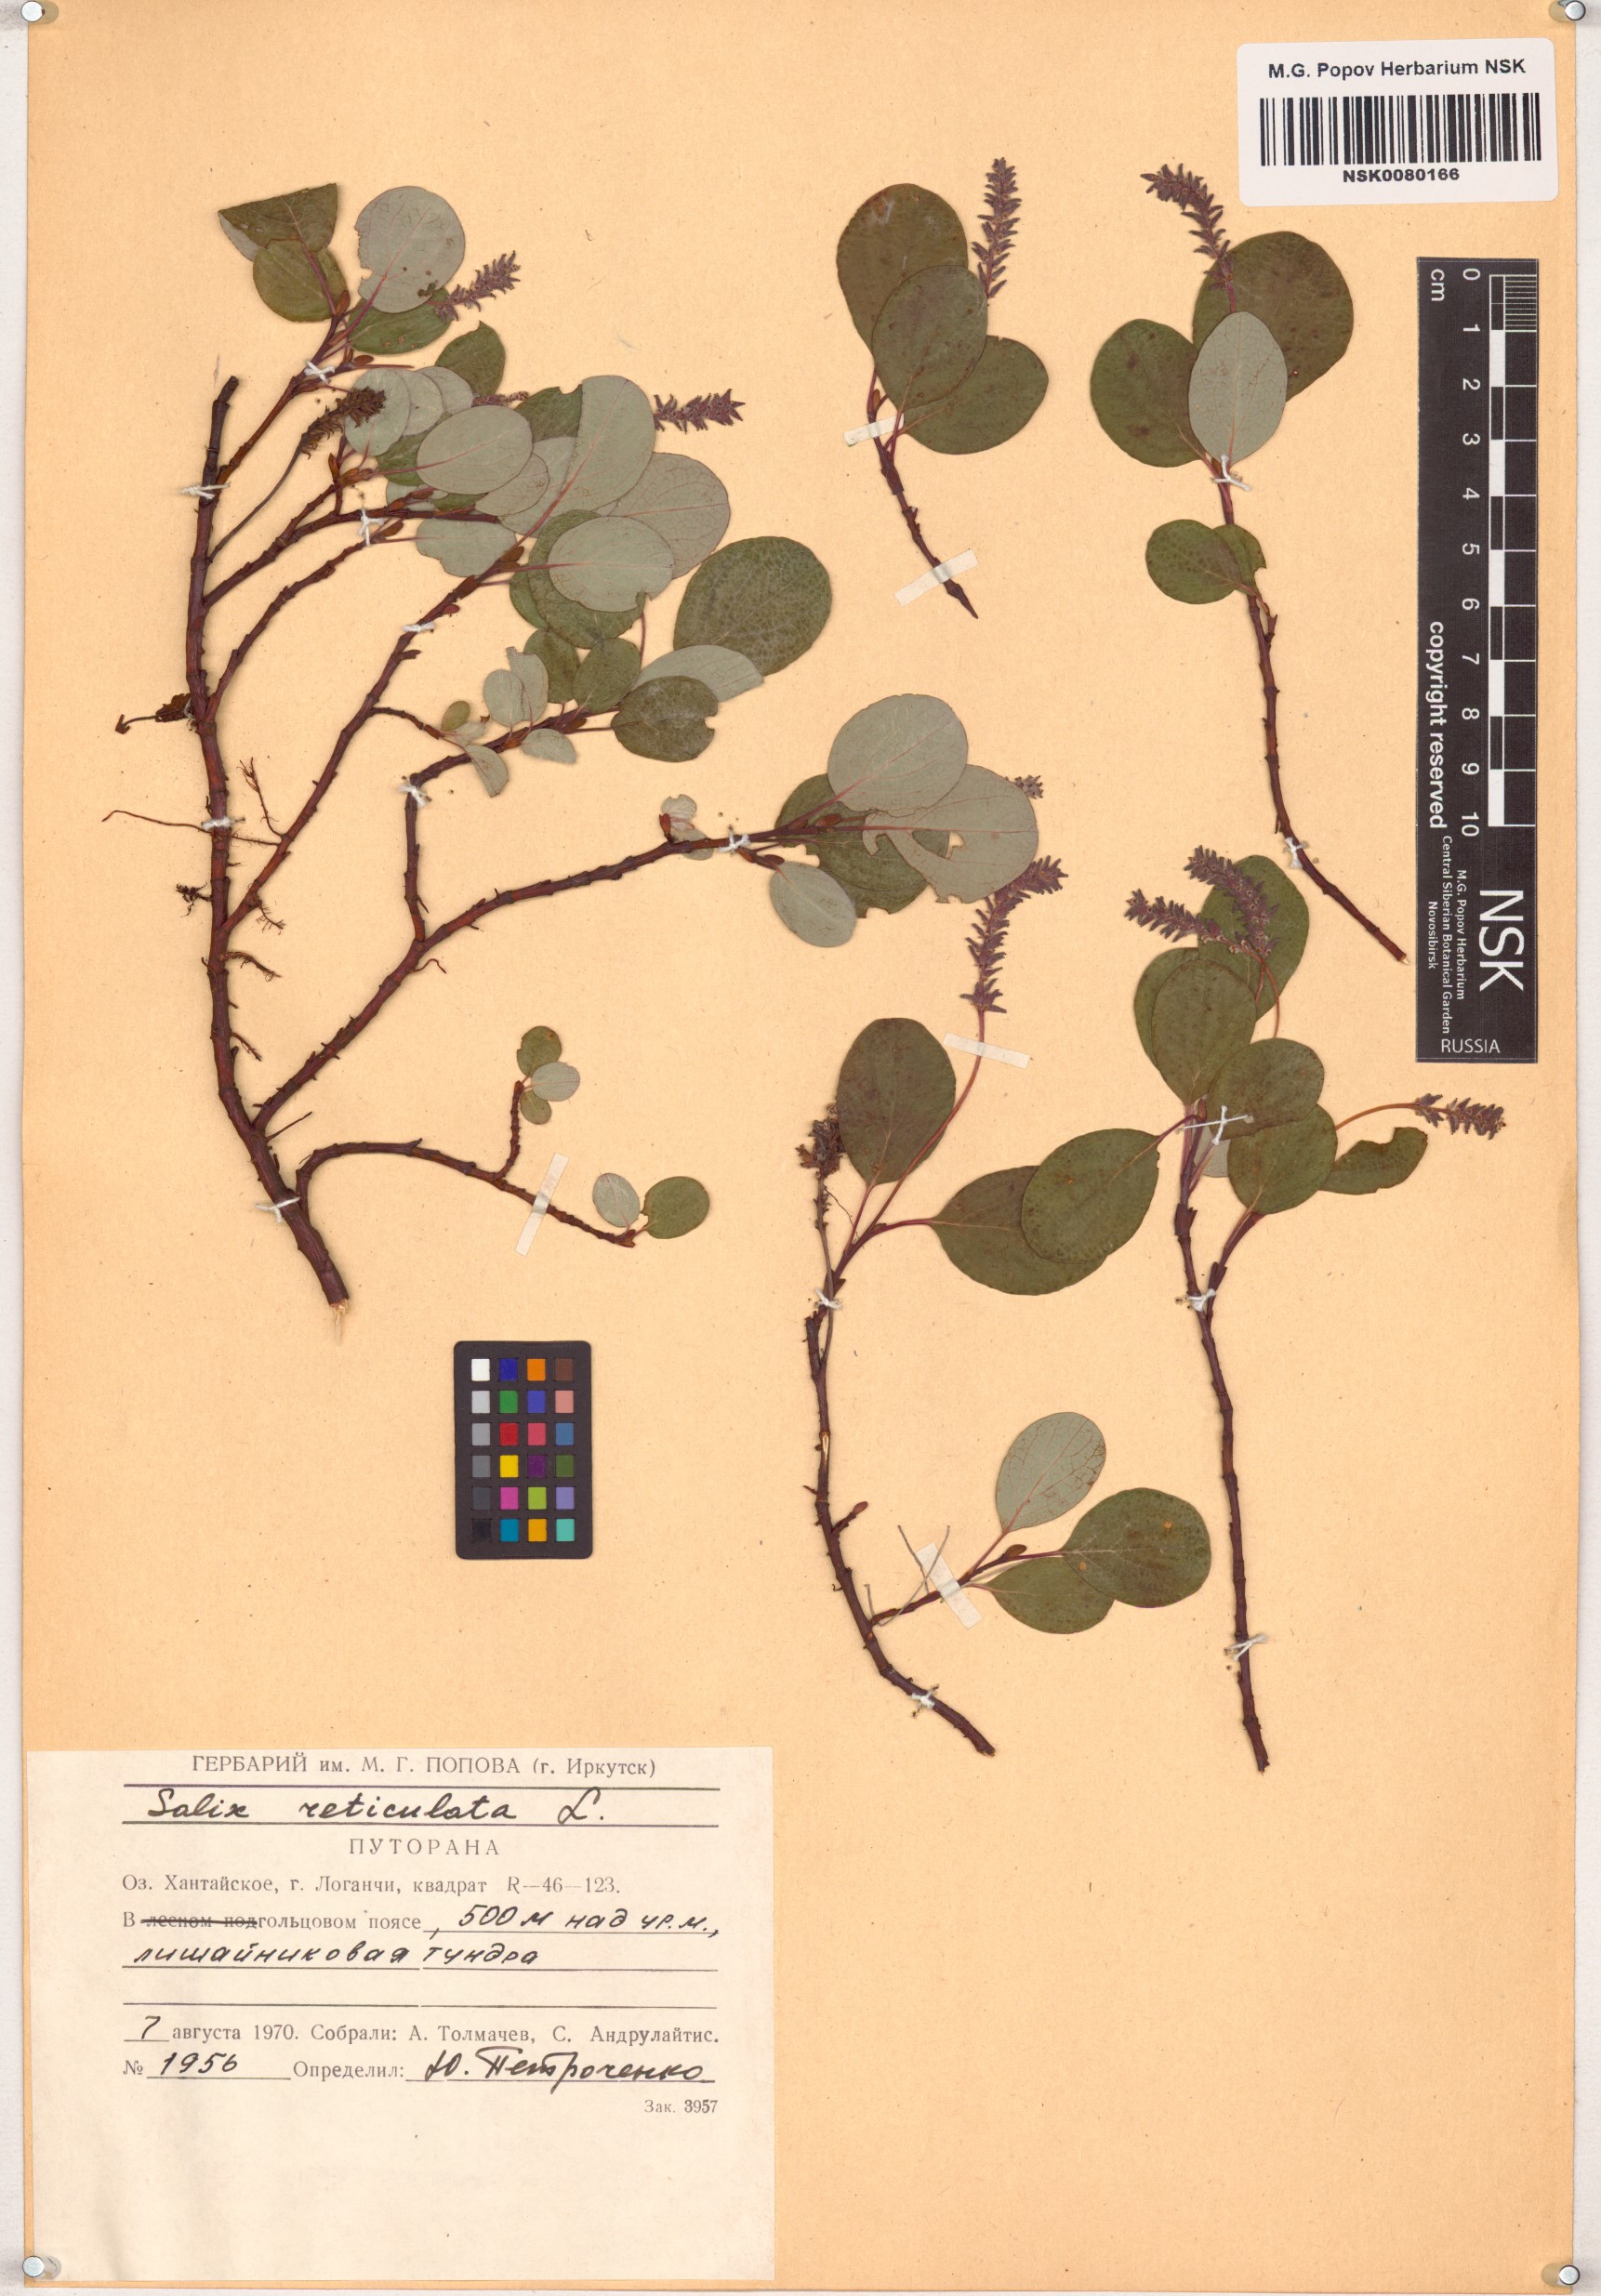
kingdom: Plantae
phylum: Tracheophyta
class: Magnoliopsida
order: Malpighiales
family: Salicaceae
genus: Salix
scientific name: Salix reticulata
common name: Net-leaved willow
